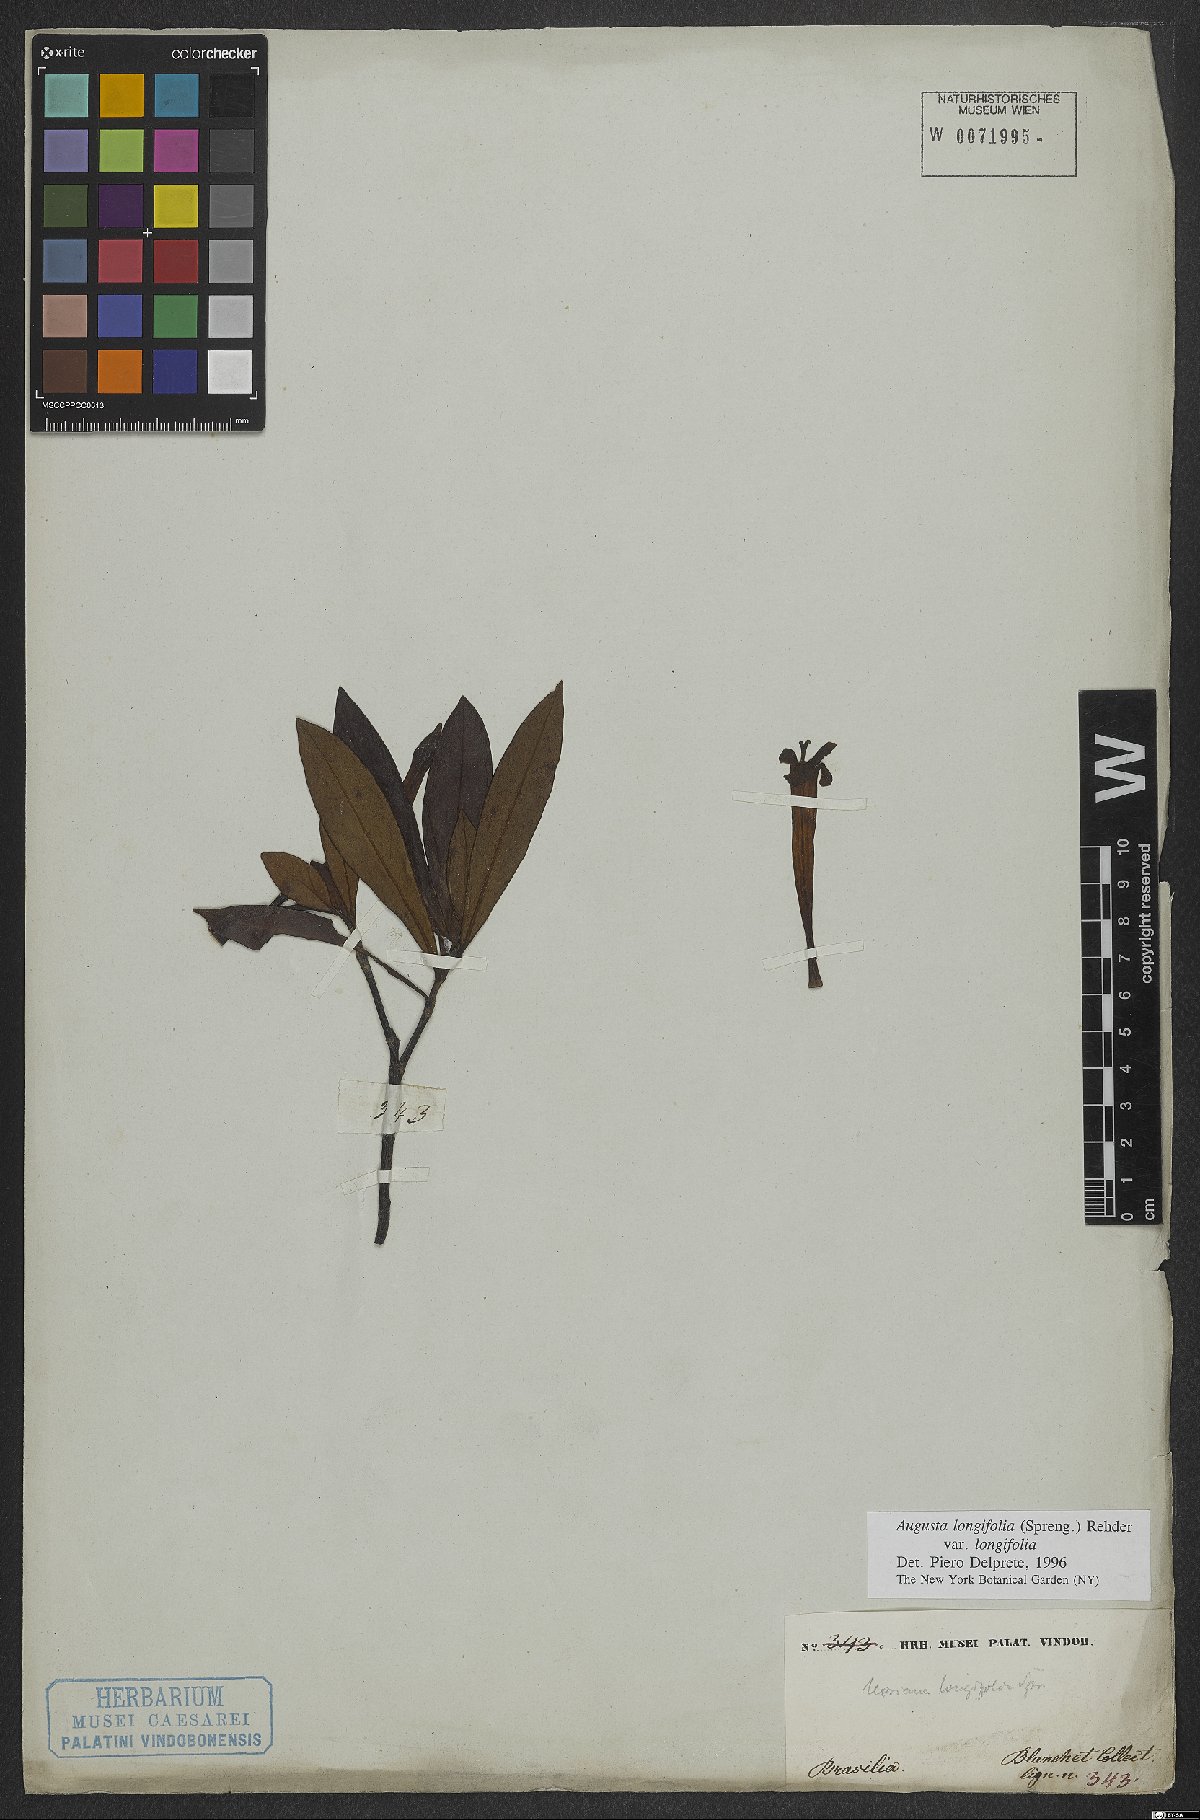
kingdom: Plantae
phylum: Tracheophyta
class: Magnoliopsida
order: Gentianales
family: Rubiaceae
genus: Augusta
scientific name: Augusta longifolia
